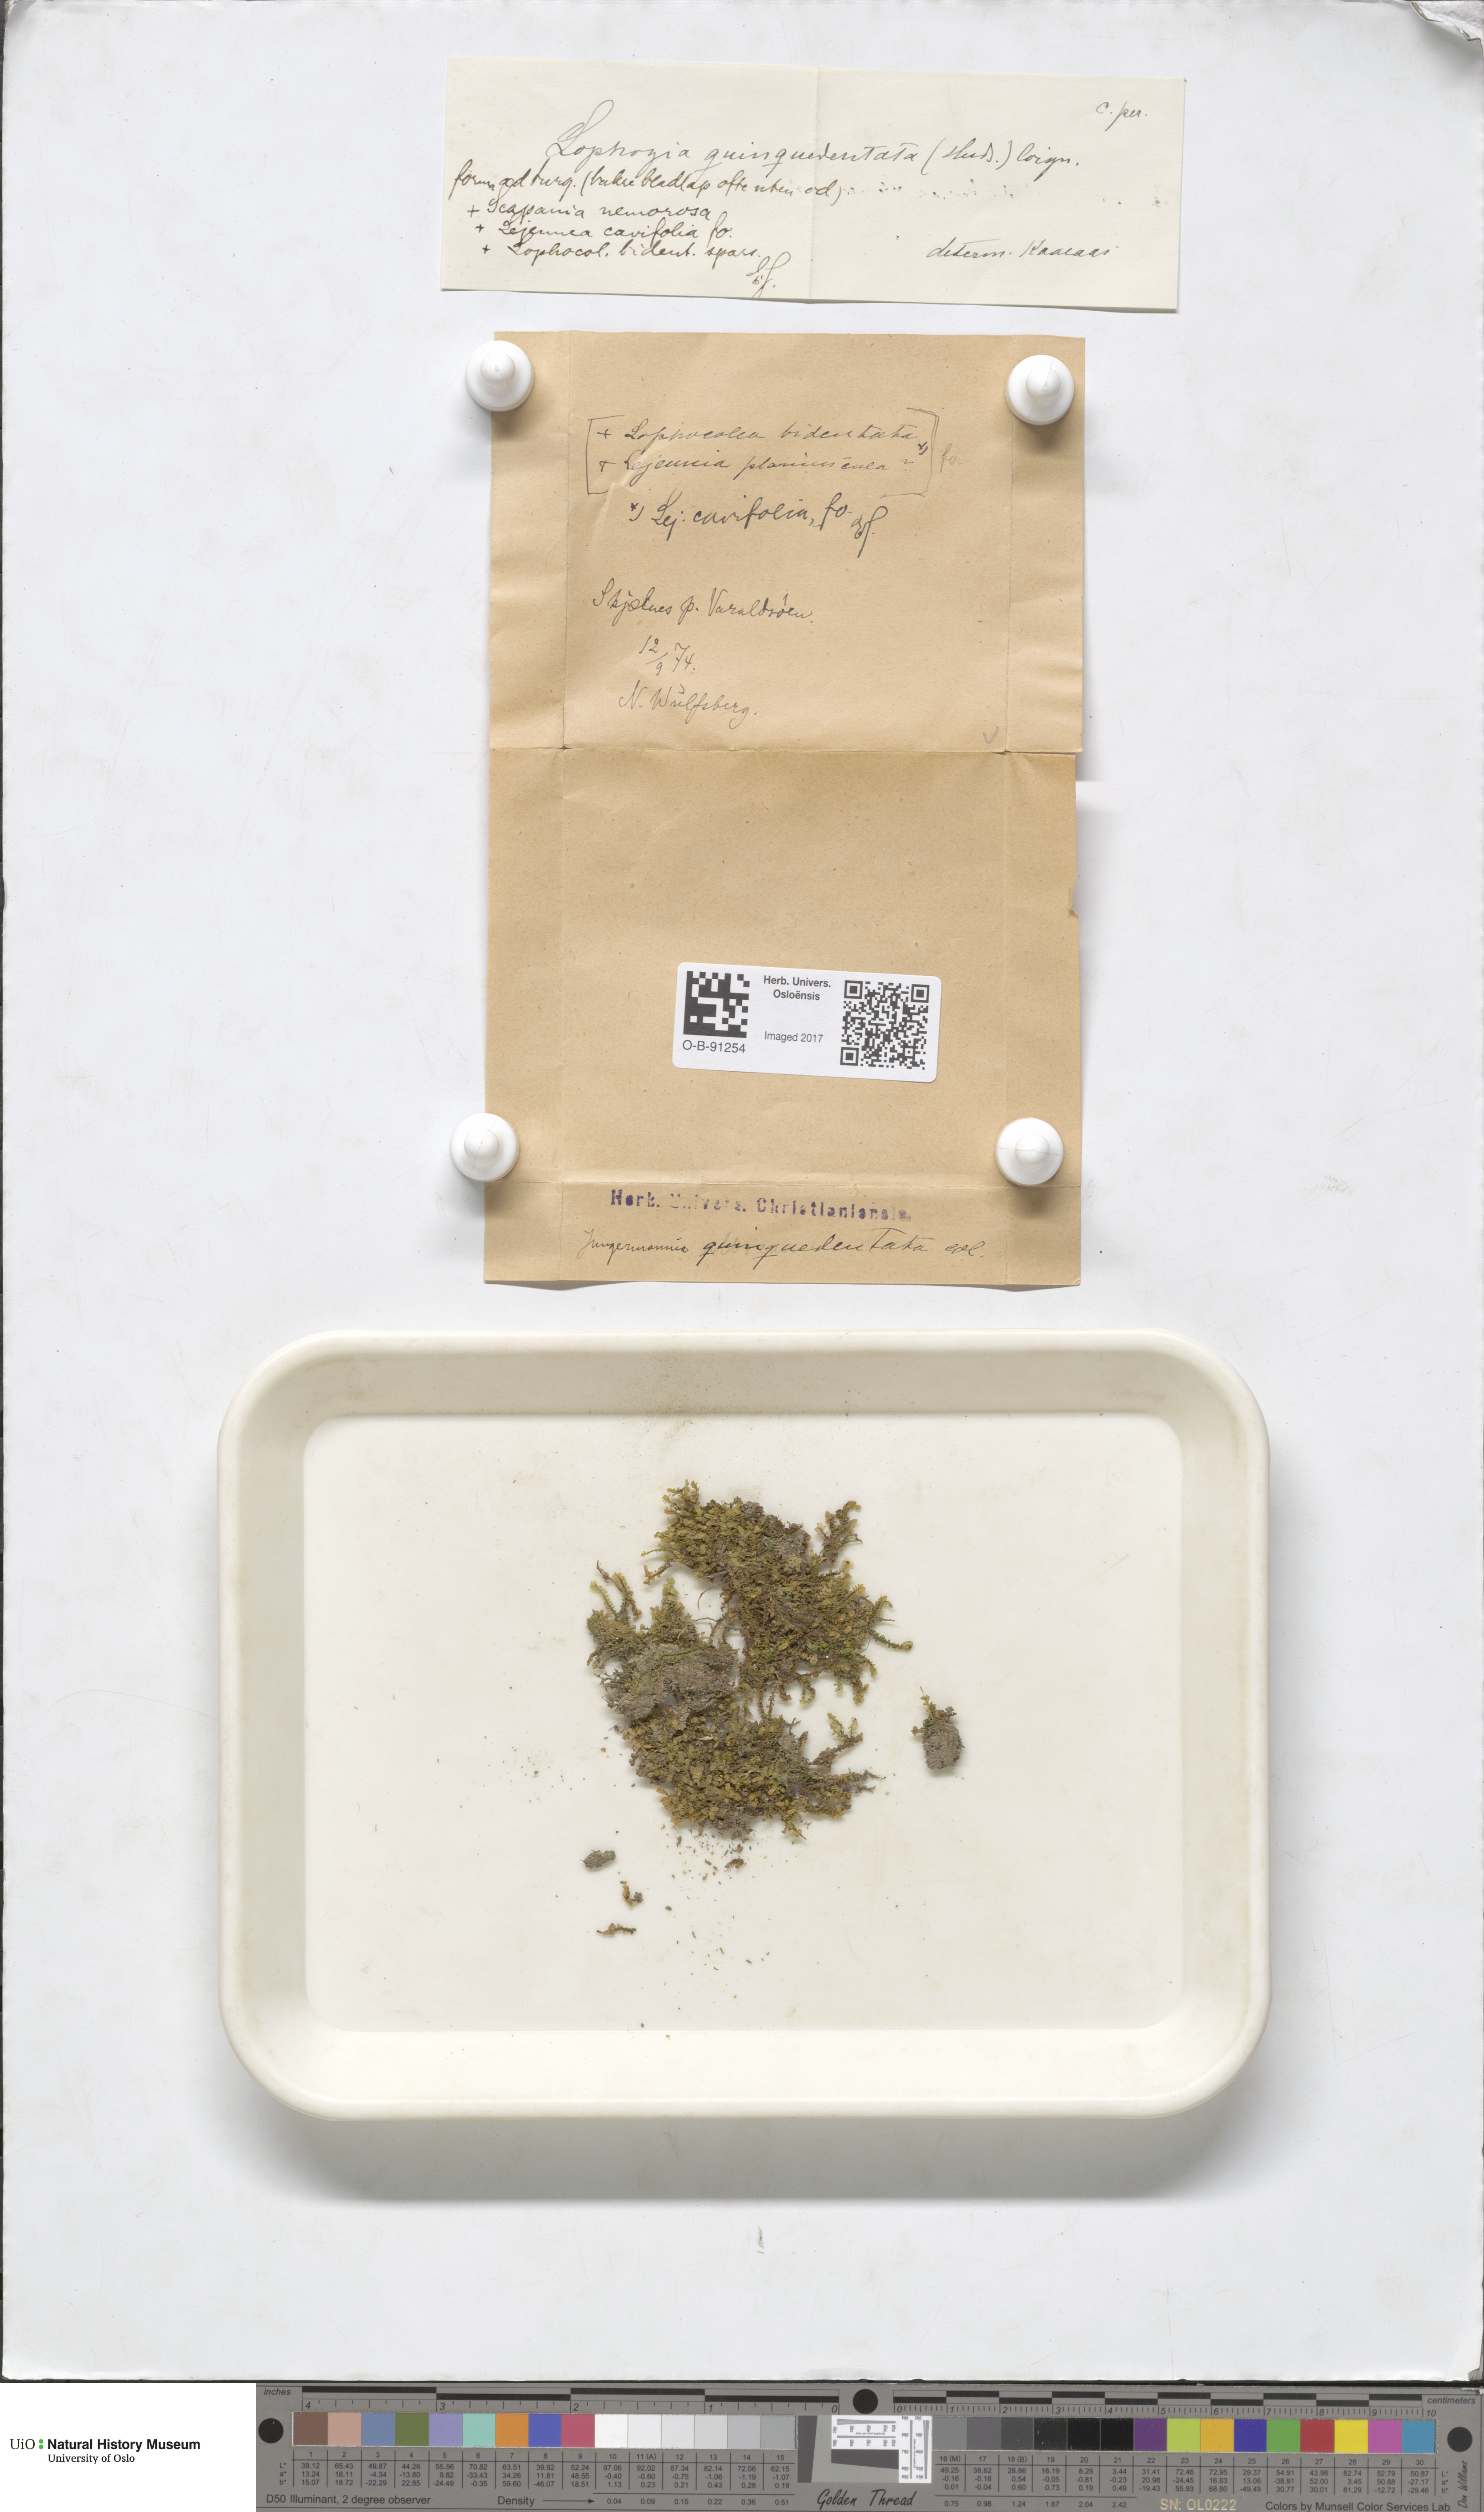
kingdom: Plantae
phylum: Marchantiophyta
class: Jungermanniopsida
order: Porellales
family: Lejeuneaceae
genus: Lejeunea
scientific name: Lejeunea cavifolia
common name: Least pouncewort
